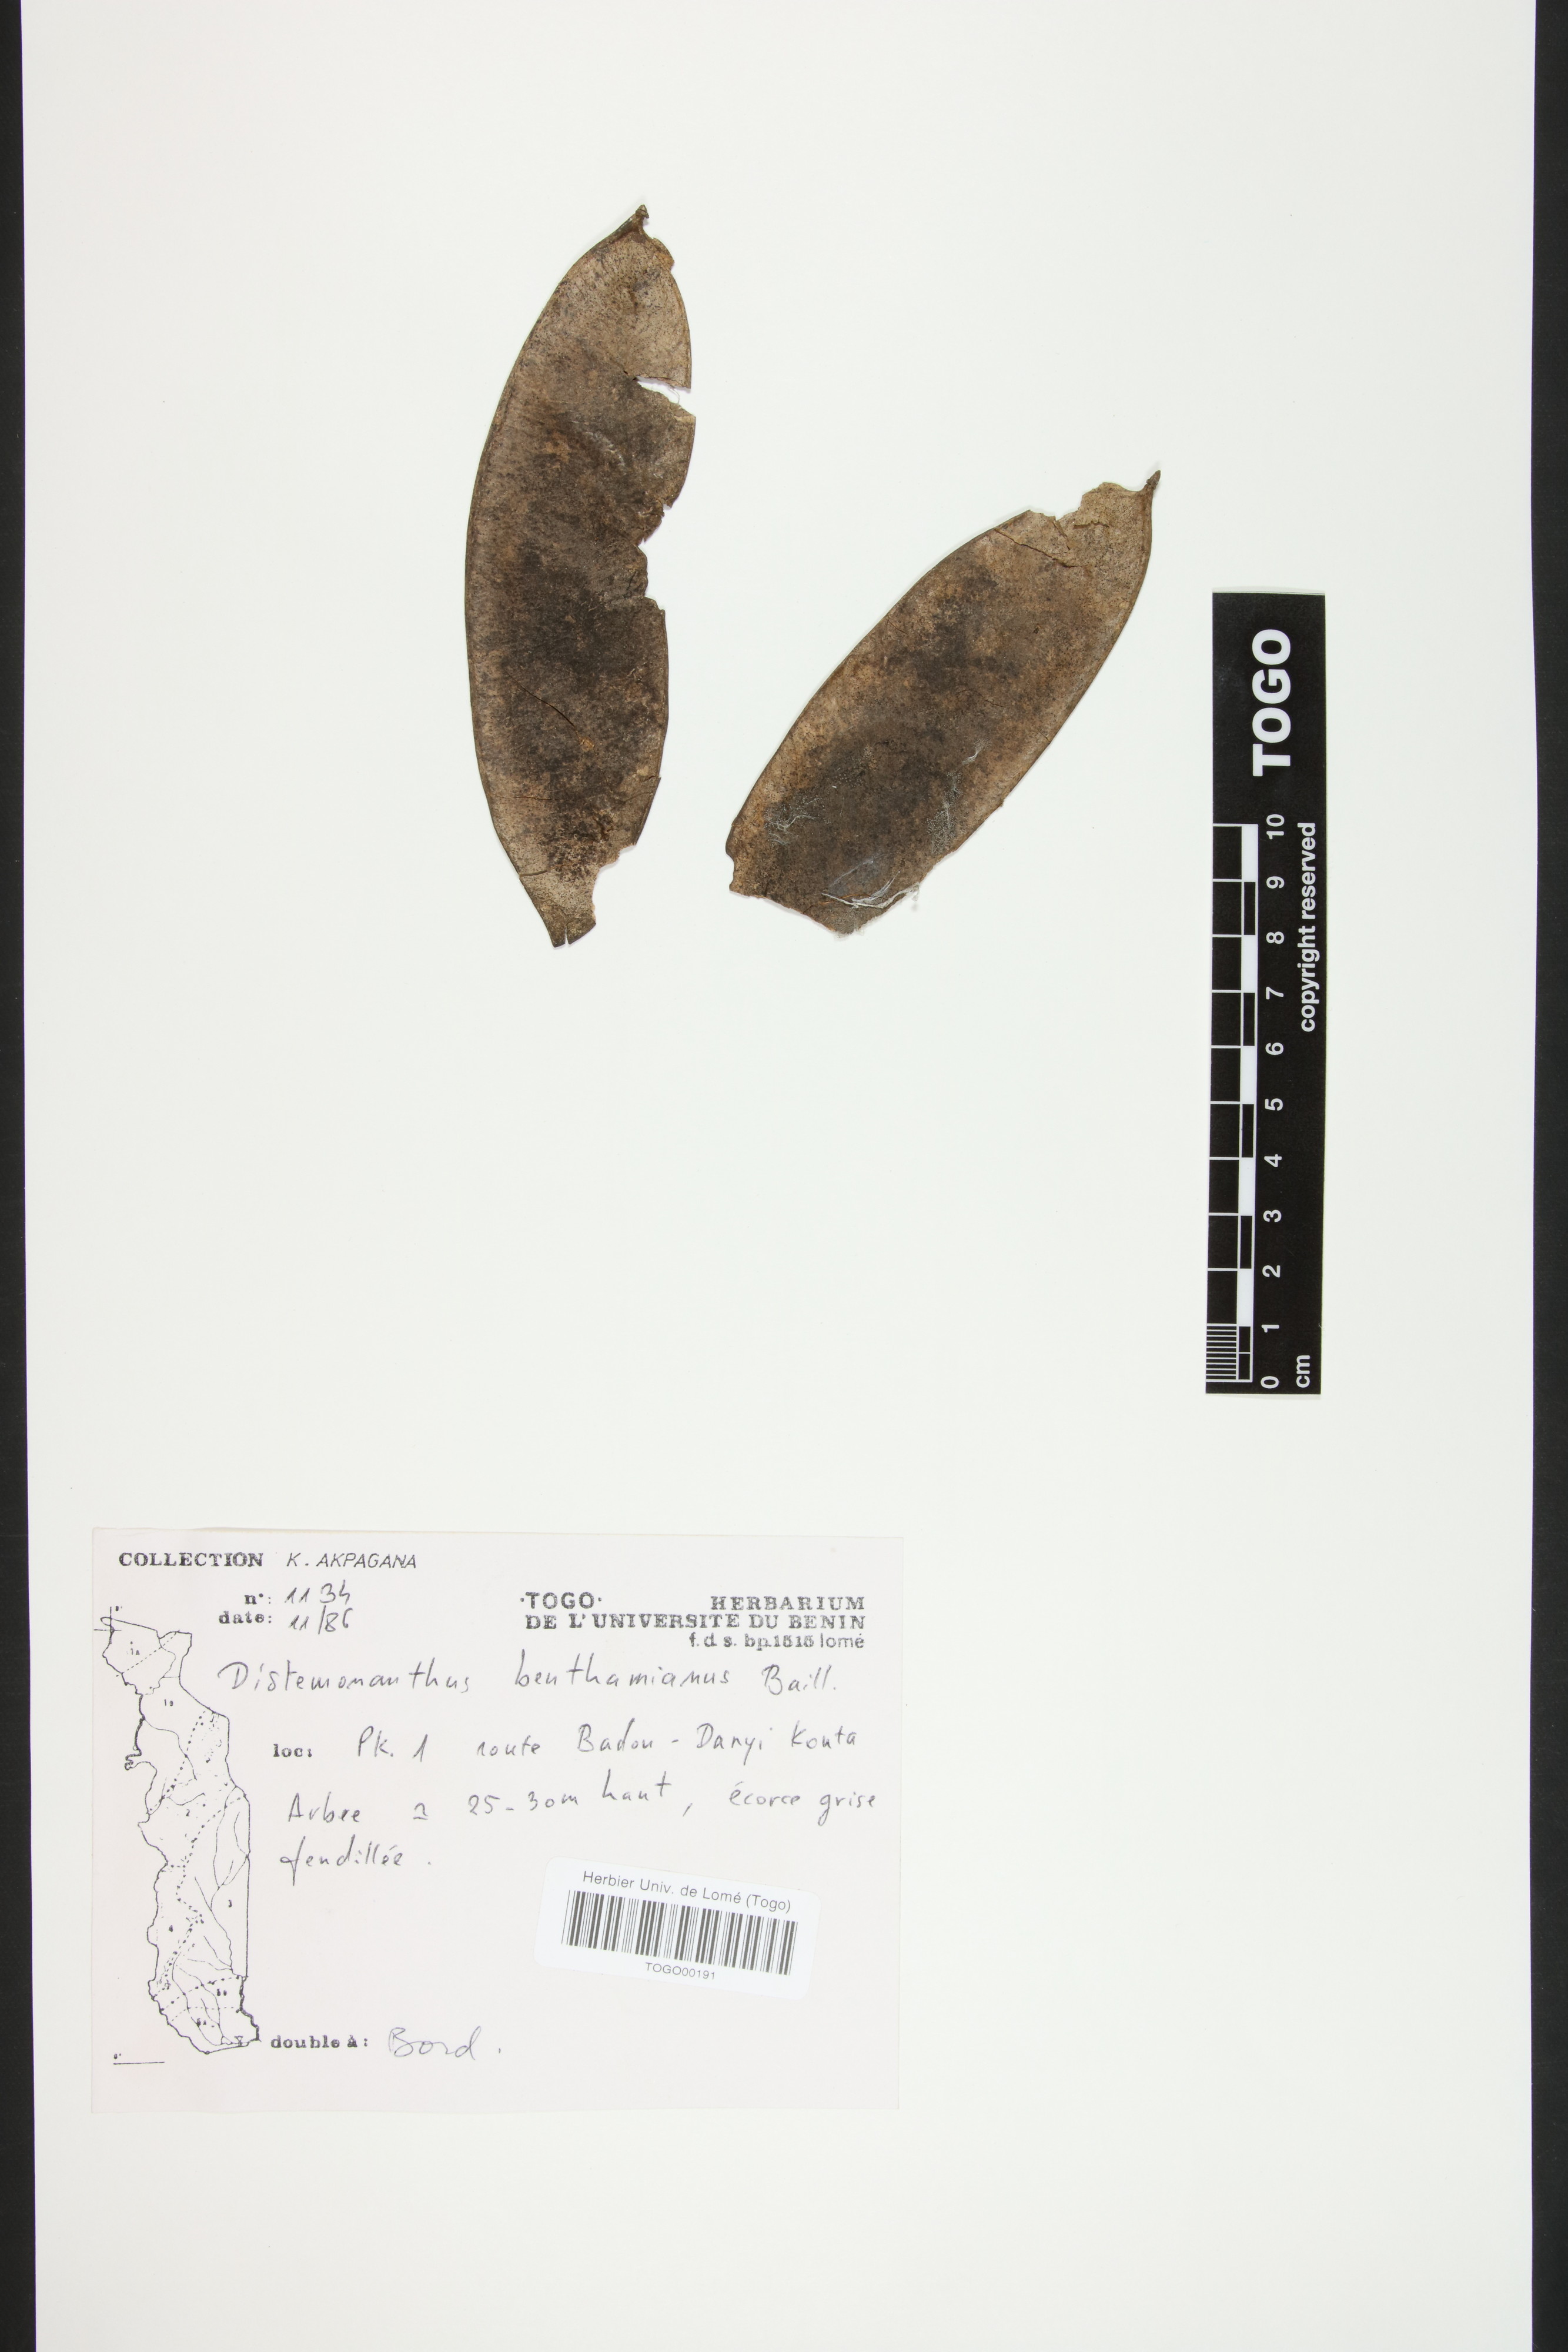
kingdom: Plantae
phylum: Tracheophyta
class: Magnoliopsida
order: Fabales
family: Fabaceae
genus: Distemonanthus
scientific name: Distemonanthus benthamianus
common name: Yellow satinwood
